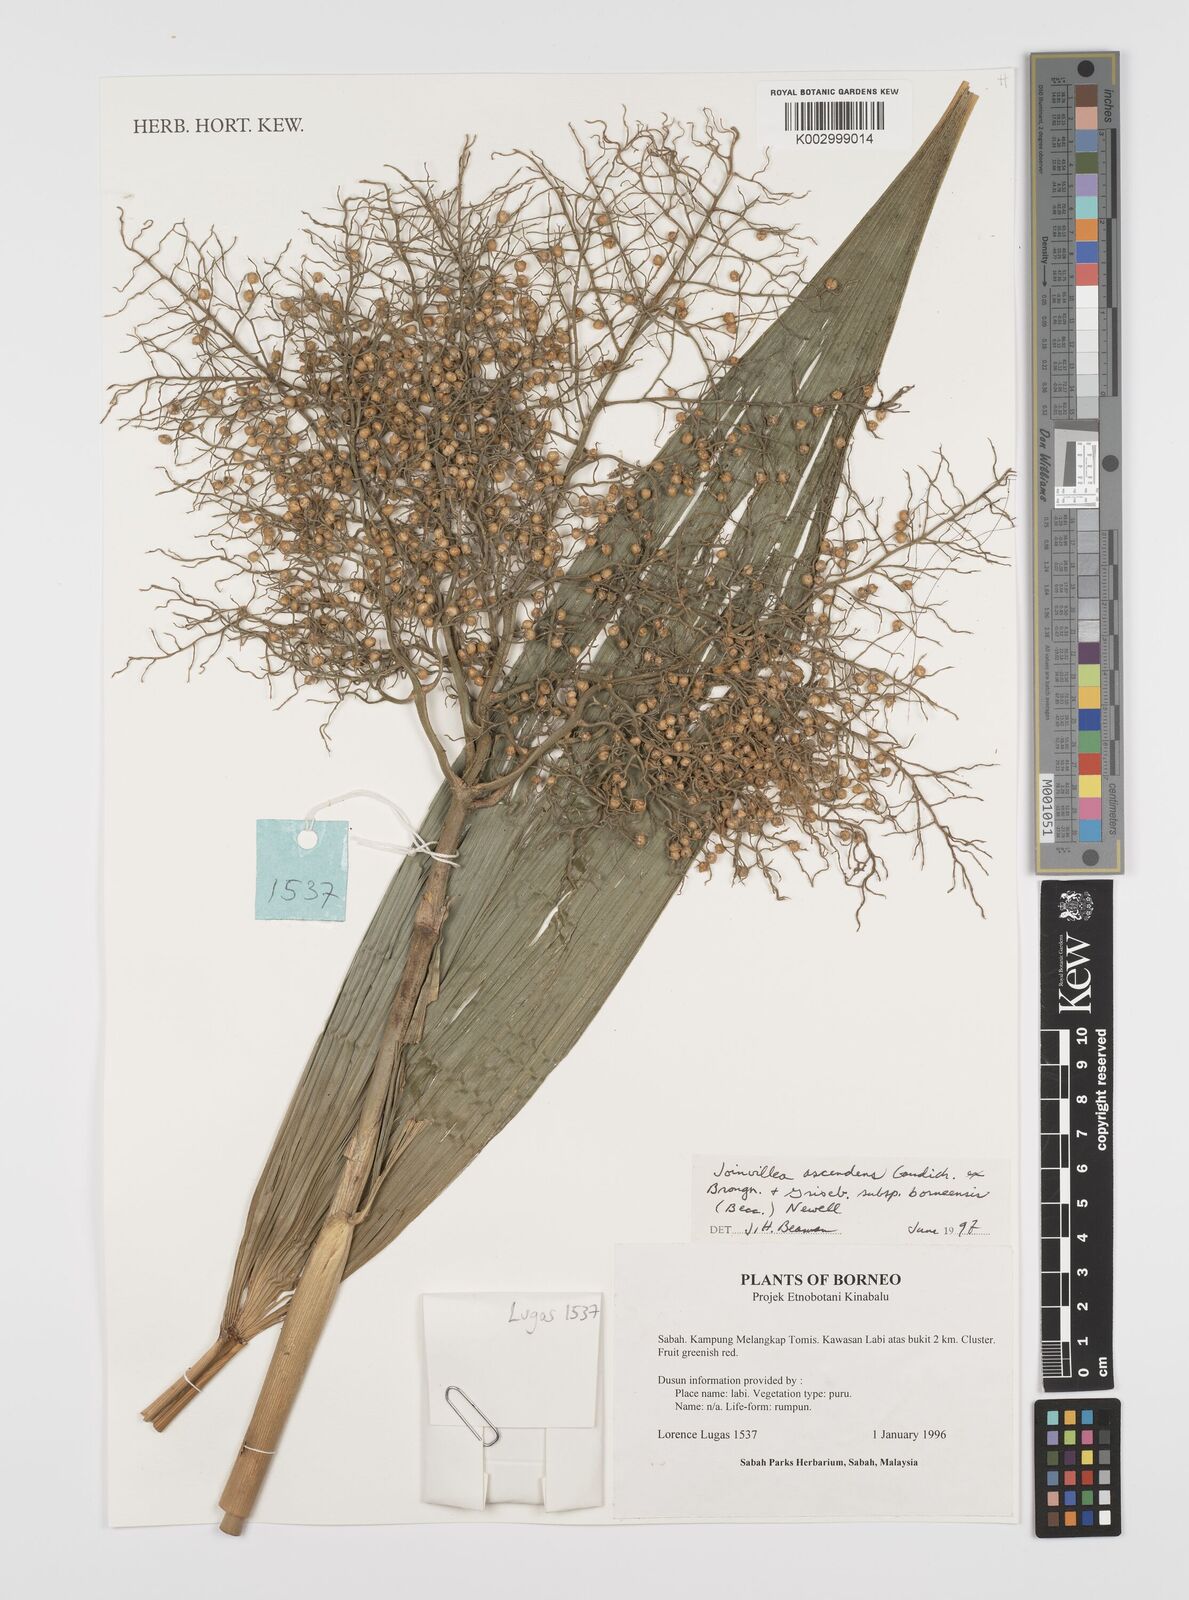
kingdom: Plantae
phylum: Tracheophyta
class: Liliopsida
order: Poales
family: Joinvilleaceae
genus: Joinvillea
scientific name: Joinvillea borneensis
